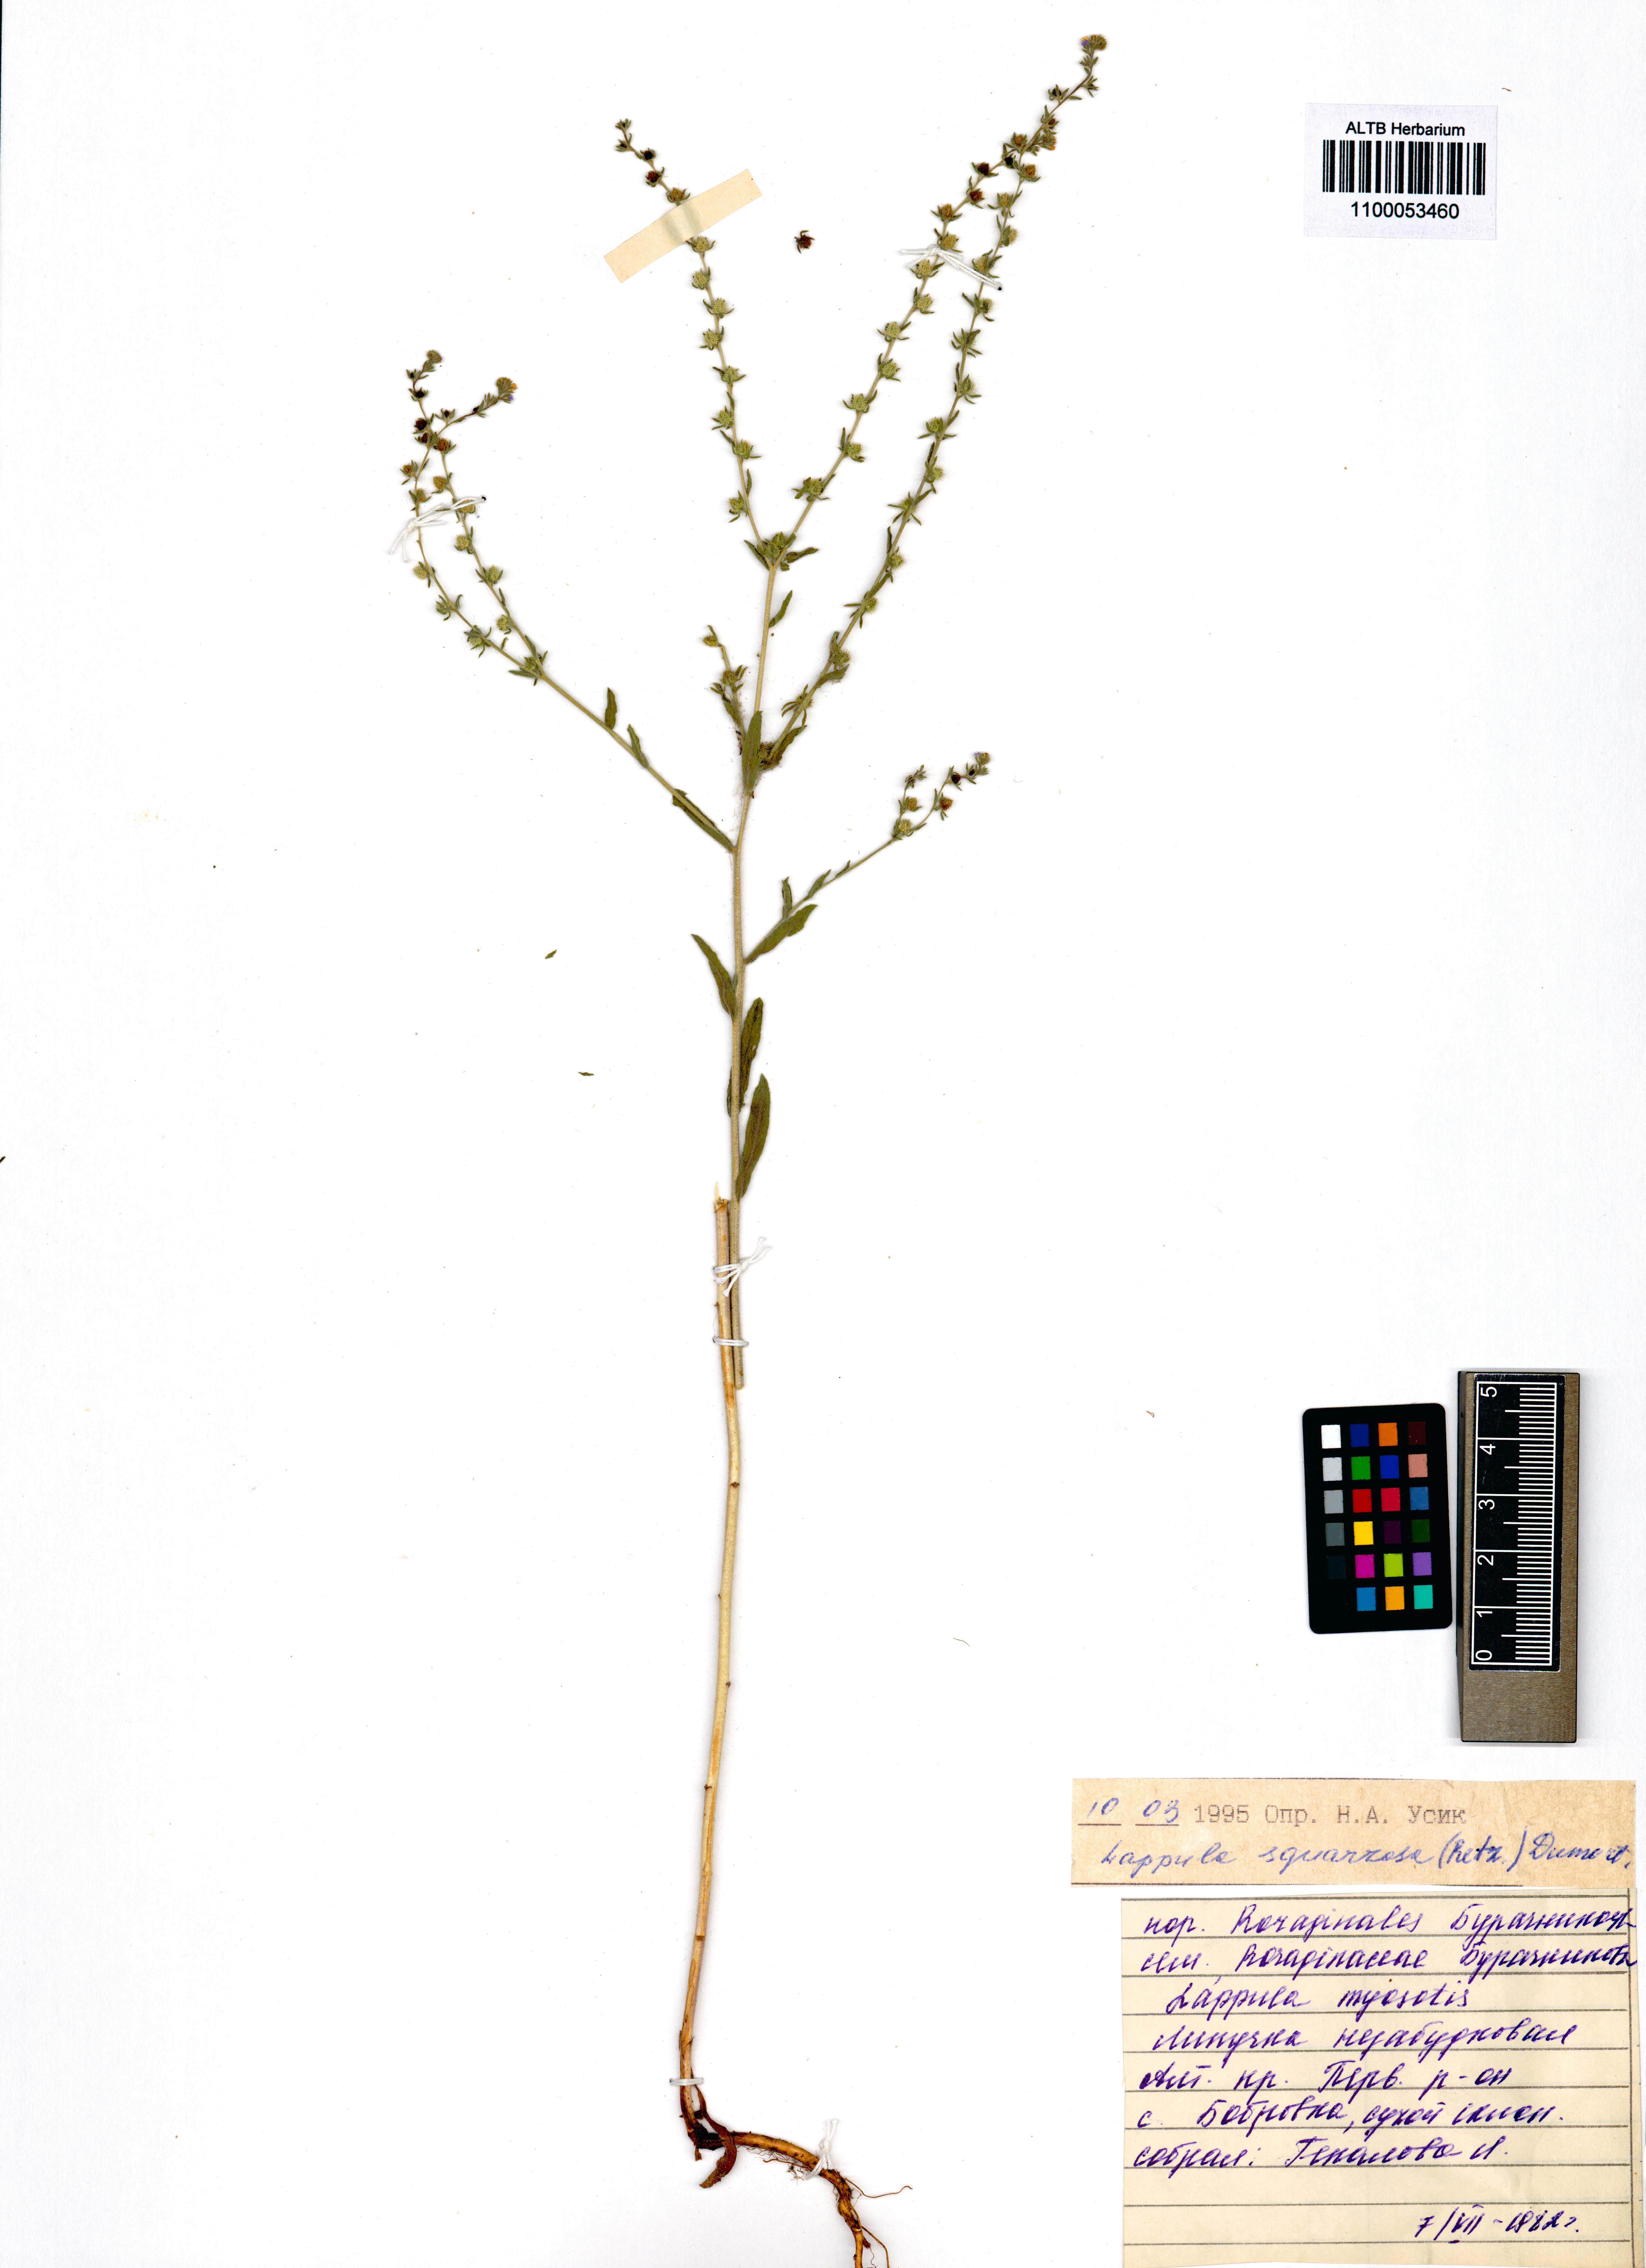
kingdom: Plantae
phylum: Tracheophyta
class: Magnoliopsida
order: Boraginales
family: Boraginaceae
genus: Lappula
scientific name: Lappula squarrosa
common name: European stickseed
